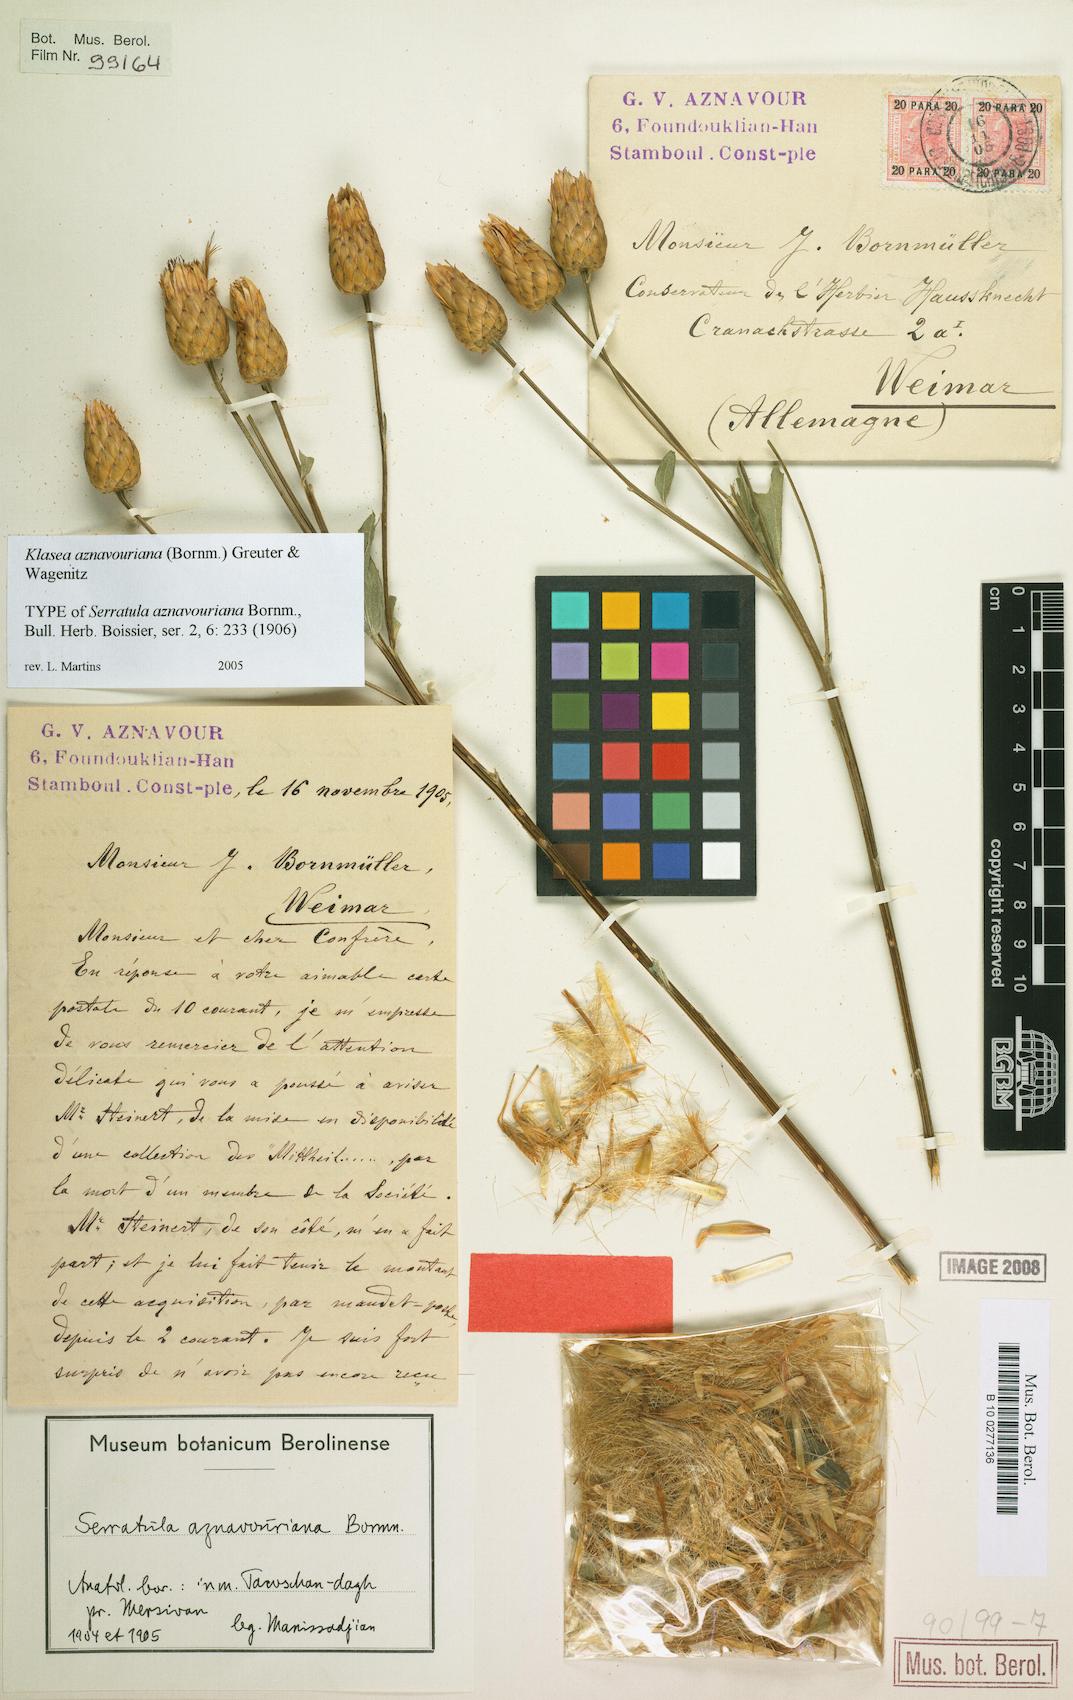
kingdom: Plantae
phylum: Tracheophyta
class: Magnoliopsida
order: Asterales
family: Asteraceae
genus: Klasea
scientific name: Klasea aznavouriana
